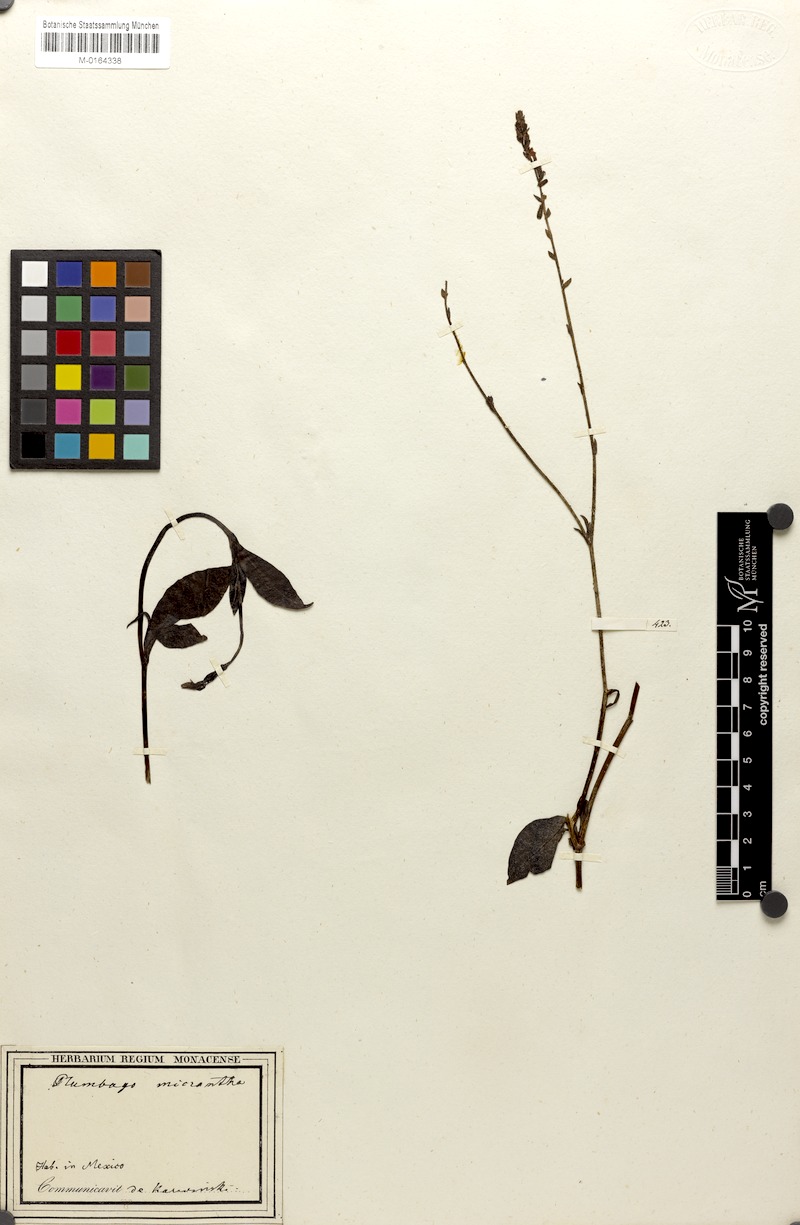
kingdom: Plantae
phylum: Tracheophyta
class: Magnoliopsida
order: Caryophyllales
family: Plumbaginaceae
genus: Plumbago
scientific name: Plumbago pulchella
